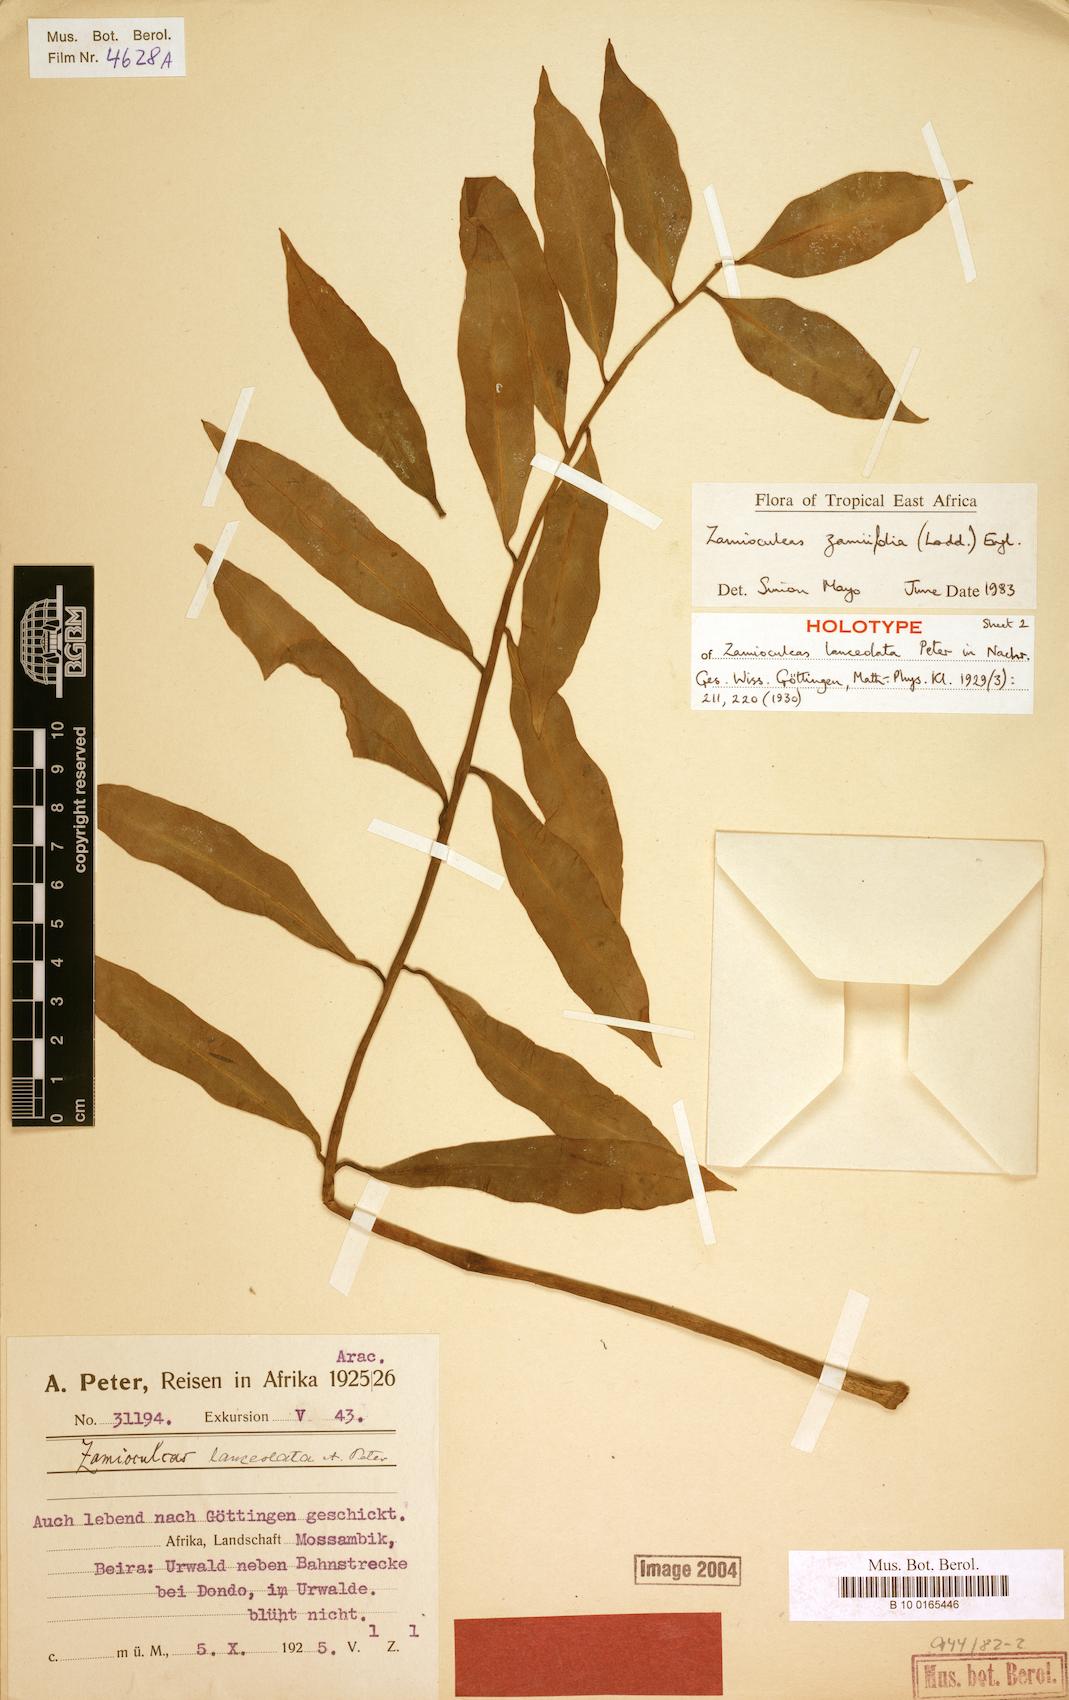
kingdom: Plantae
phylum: Tracheophyta
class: Liliopsida
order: Alismatales
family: Araceae
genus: Zamioculcas
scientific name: Zamioculcas zamiifolia
